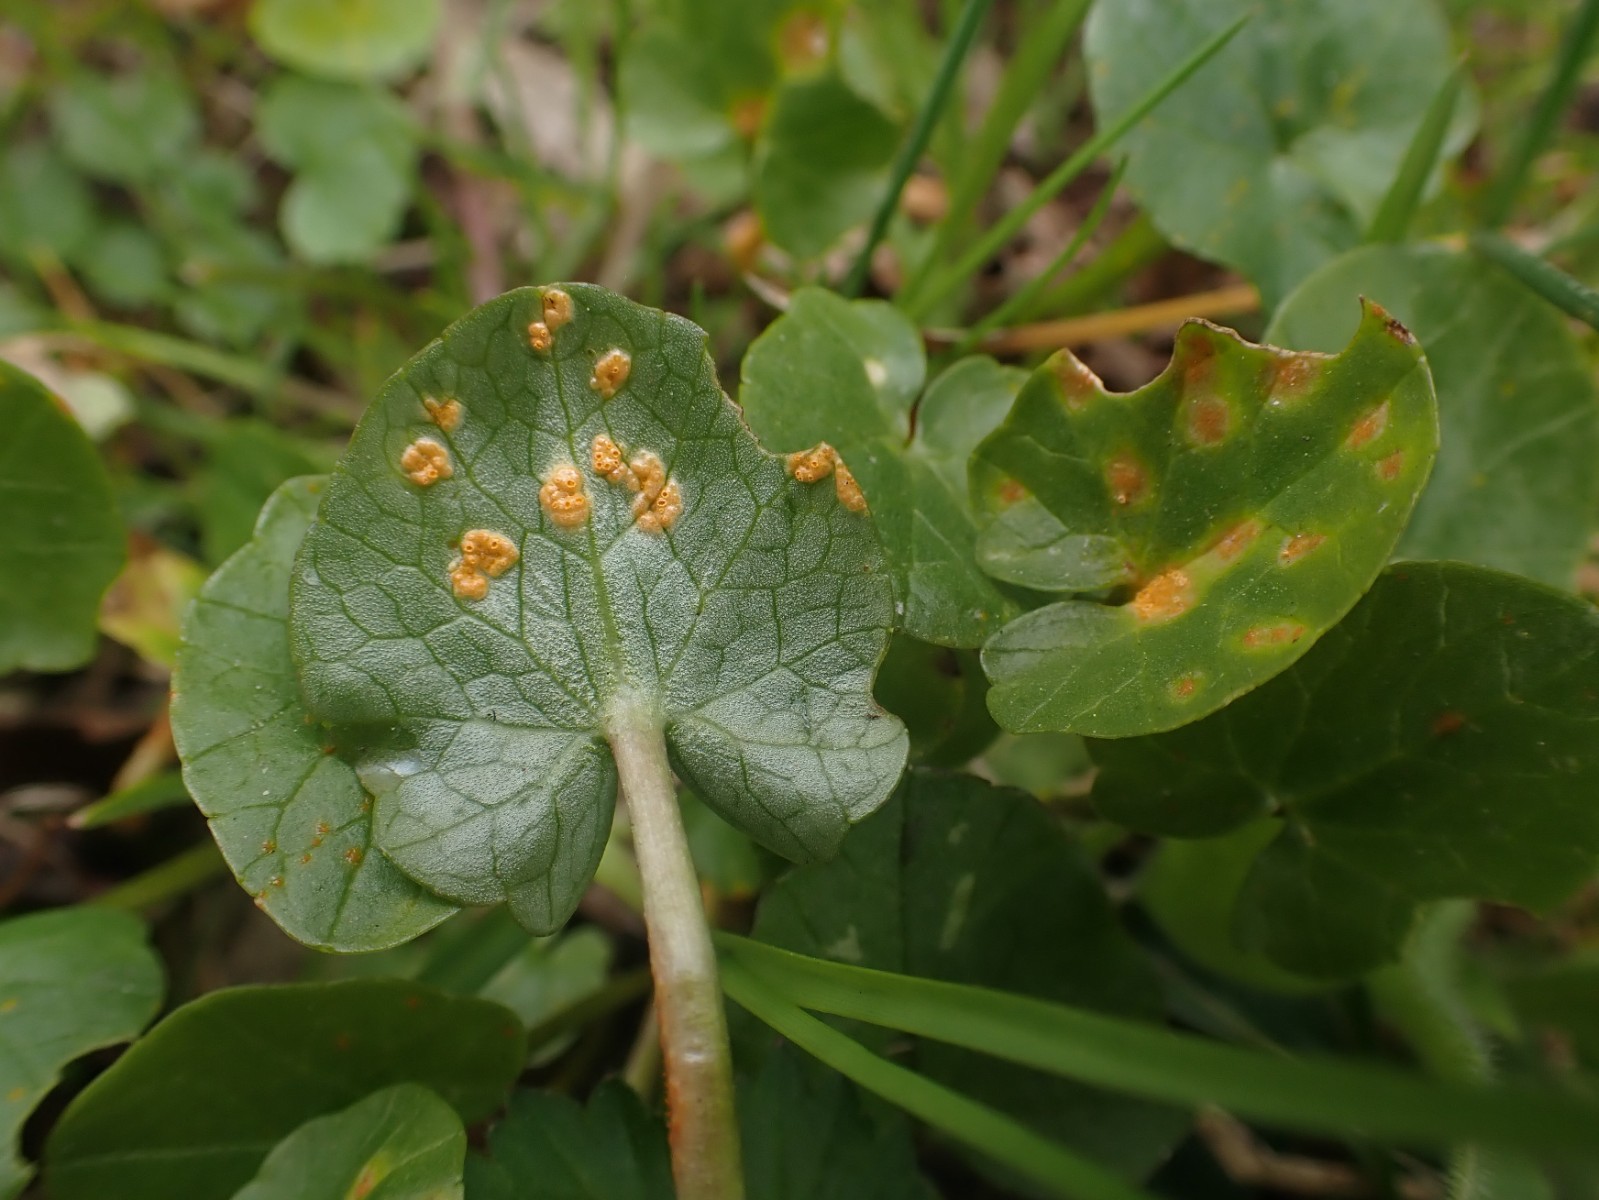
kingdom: Fungi
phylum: Basidiomycota
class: Pucciniomycetes
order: Pucciniales
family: Pucciniaceae
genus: Uromyces
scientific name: Uromyces dactylidis
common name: ranunkel-encellerust
